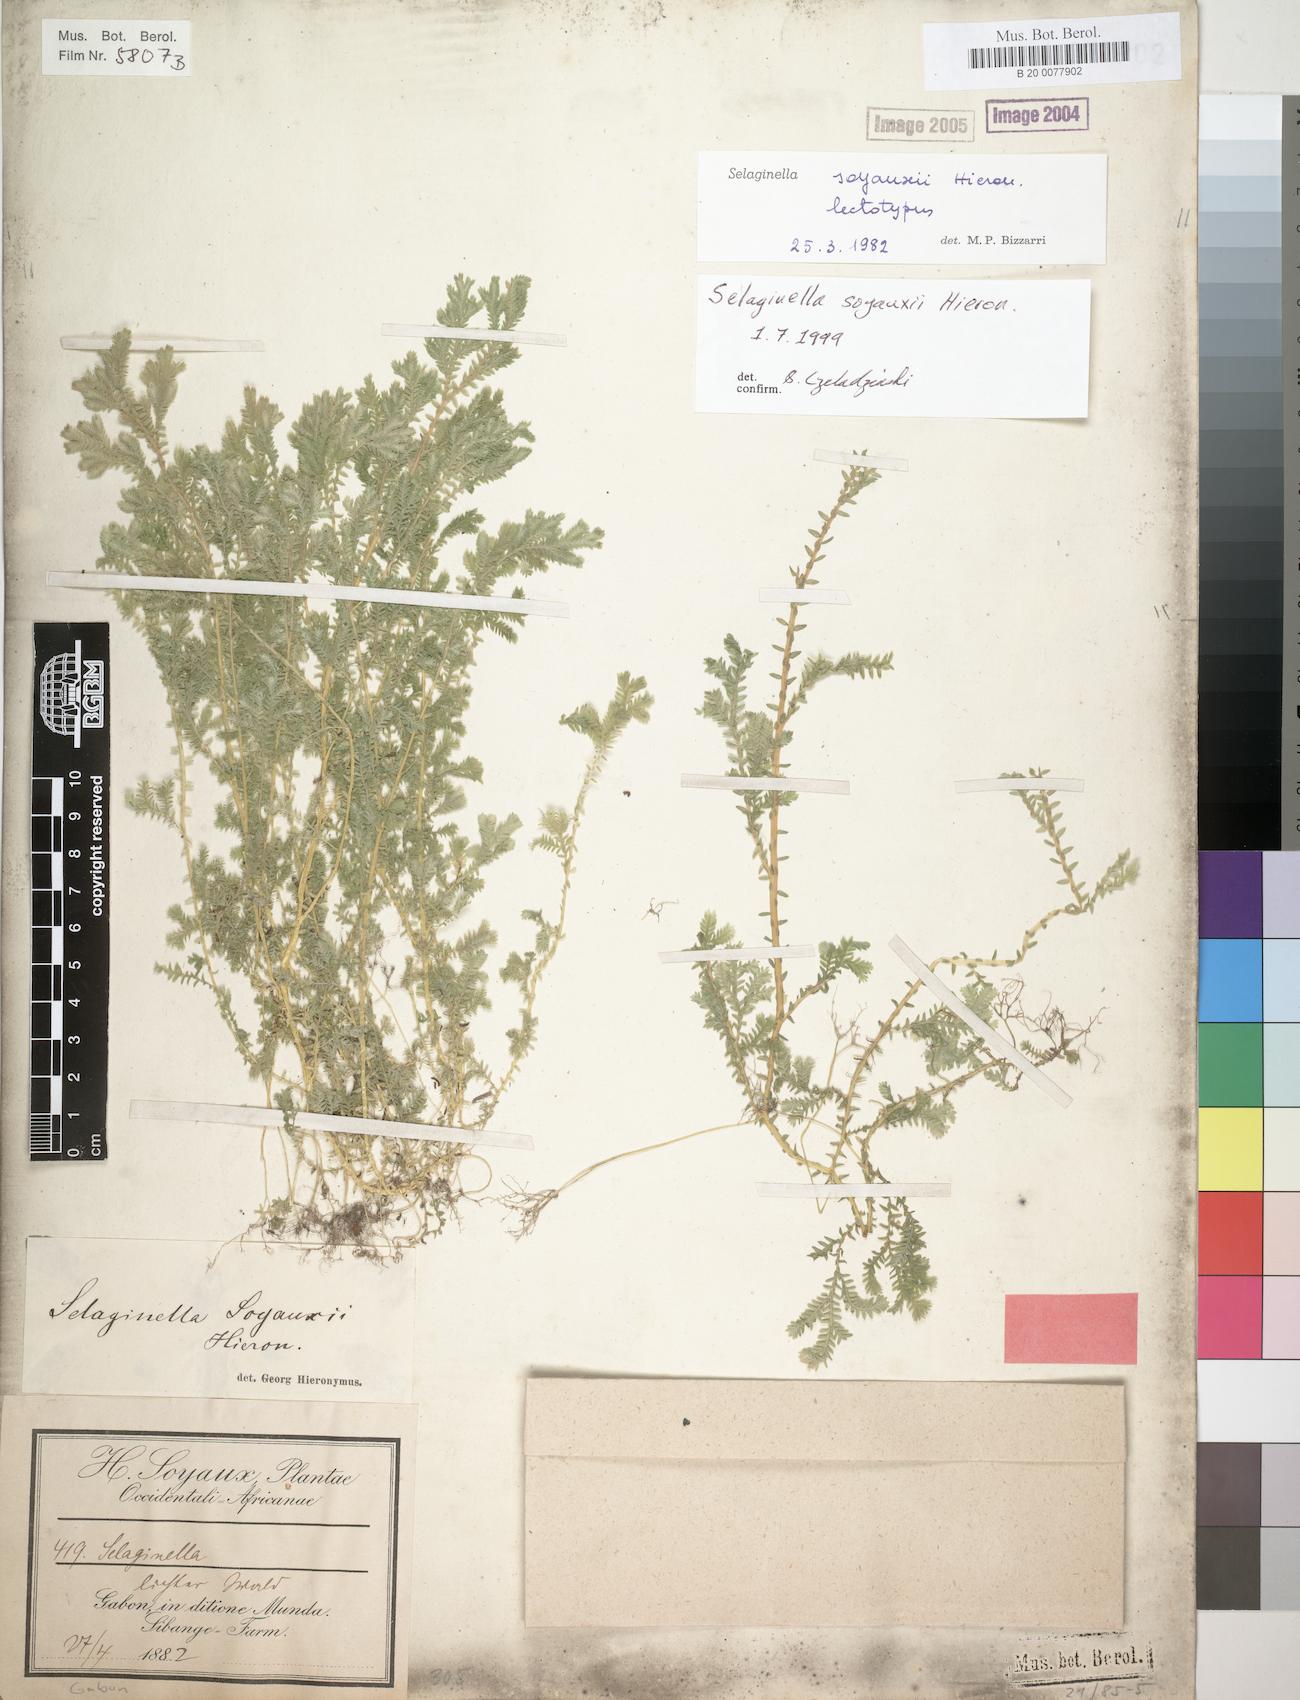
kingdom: Plantae
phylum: Tracheophyta
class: Lycopodiopsida
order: Selaginellales
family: Selaginellaceae
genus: Selaginella
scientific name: Selaginella
